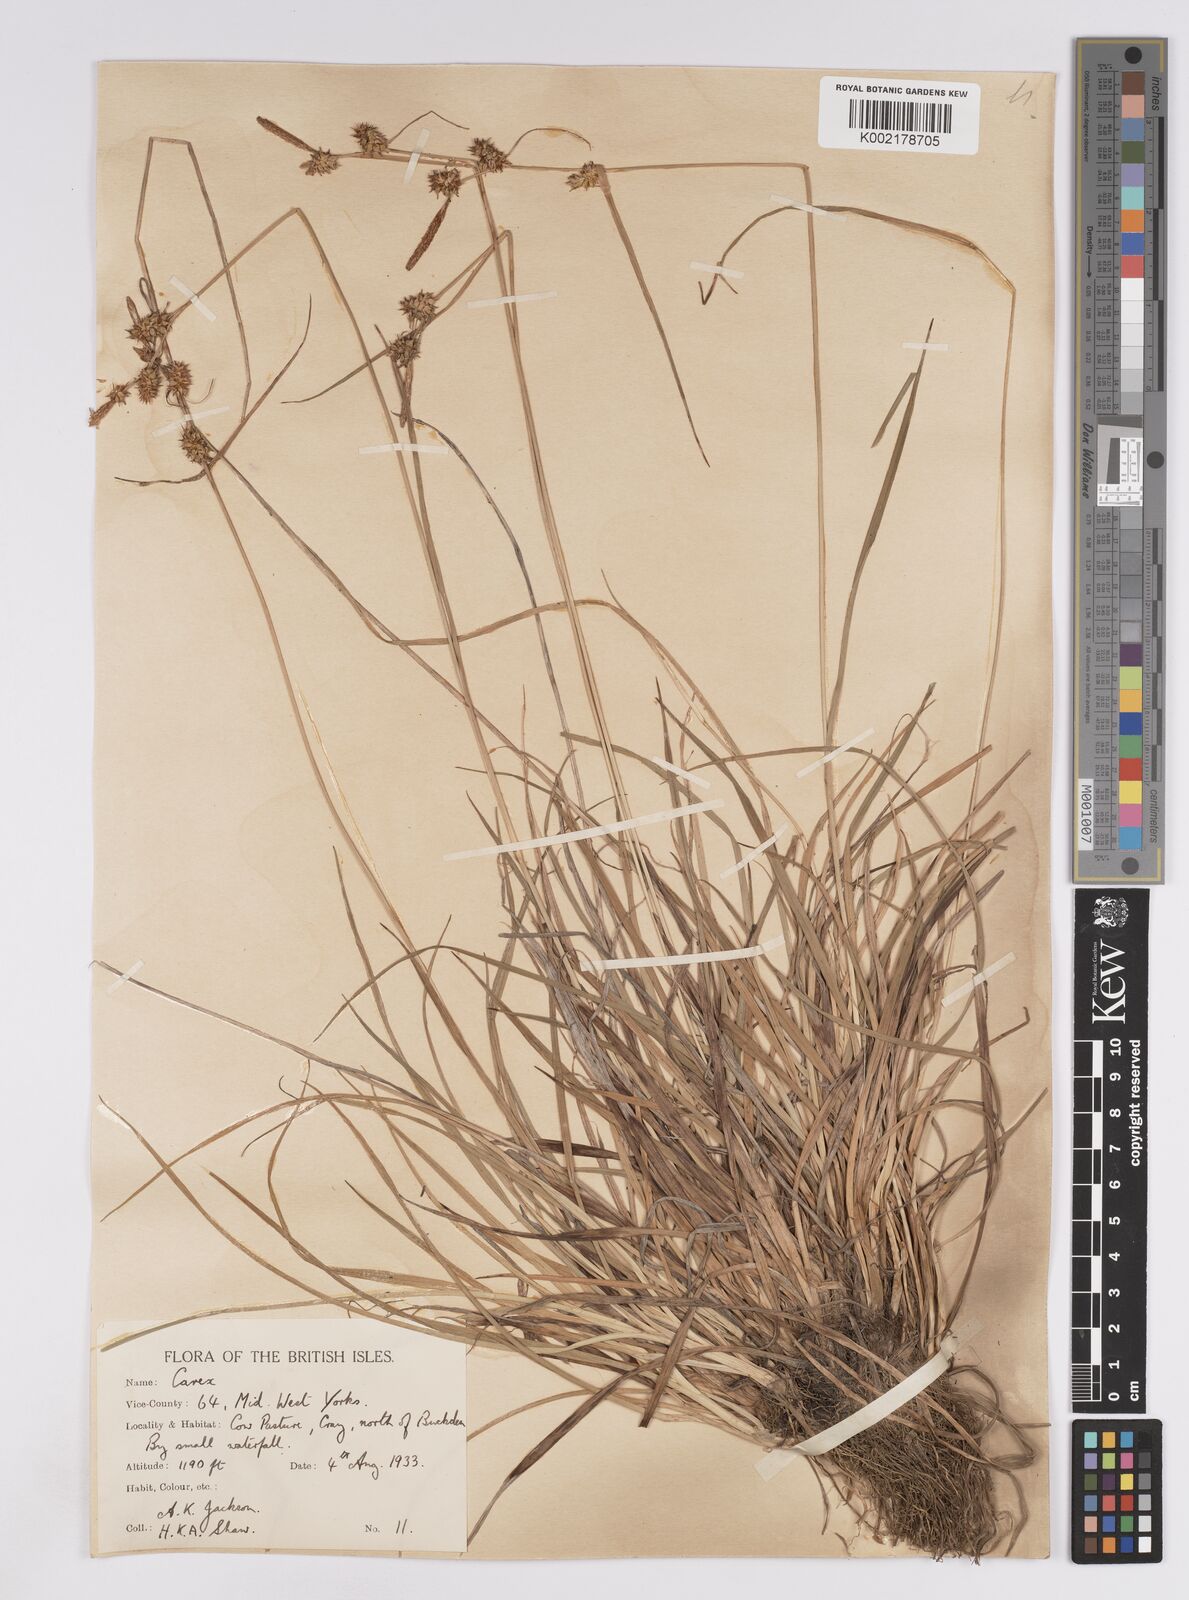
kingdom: Plantae
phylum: Tracheophyta
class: Liliopsida
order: Poales
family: Cyperaceae
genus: Carex
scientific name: Carex lepidocarpa
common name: Long-stalked yellow-sedge
